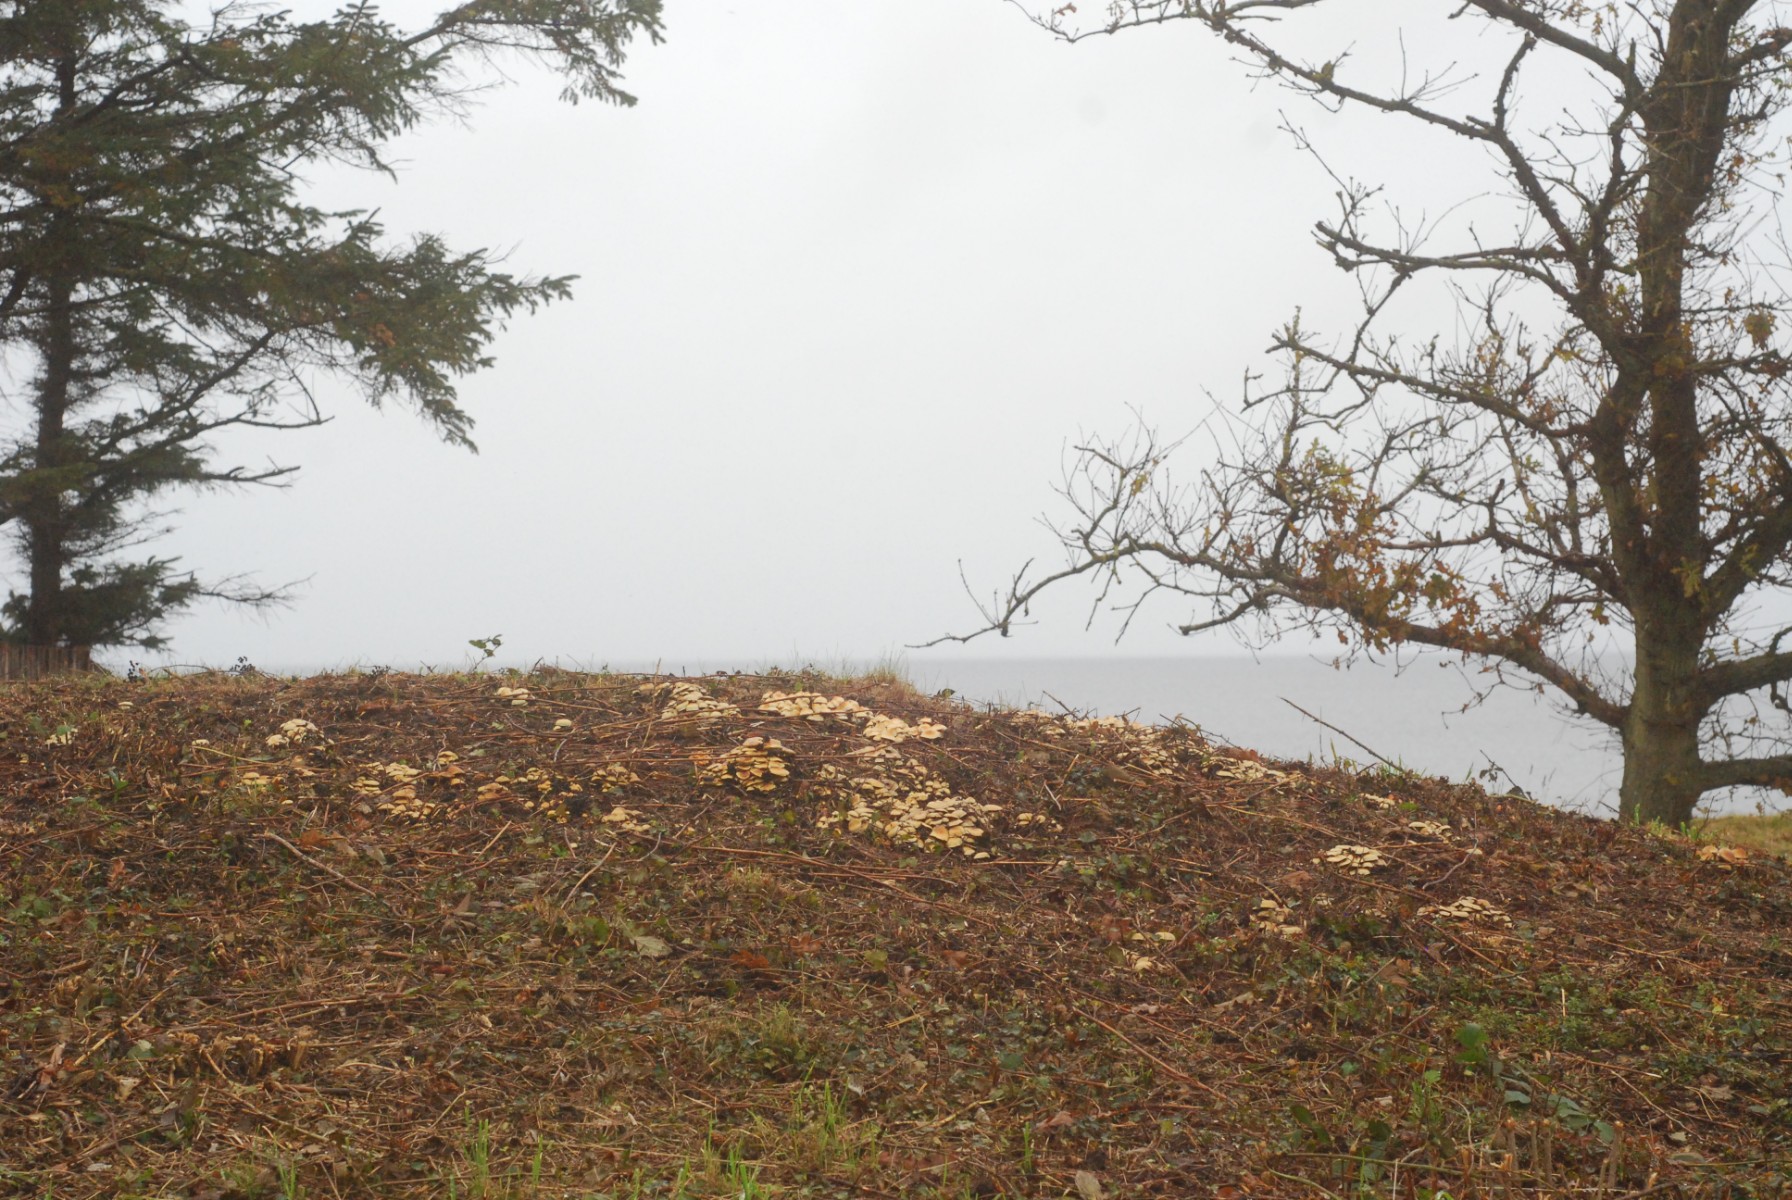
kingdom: Fungi
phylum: Basidiomycota
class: Agaricomycetes
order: Agaricales
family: Strophariaceae
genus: Hypholoma
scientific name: Hypholoma capnoides
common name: gran-svovlhat
